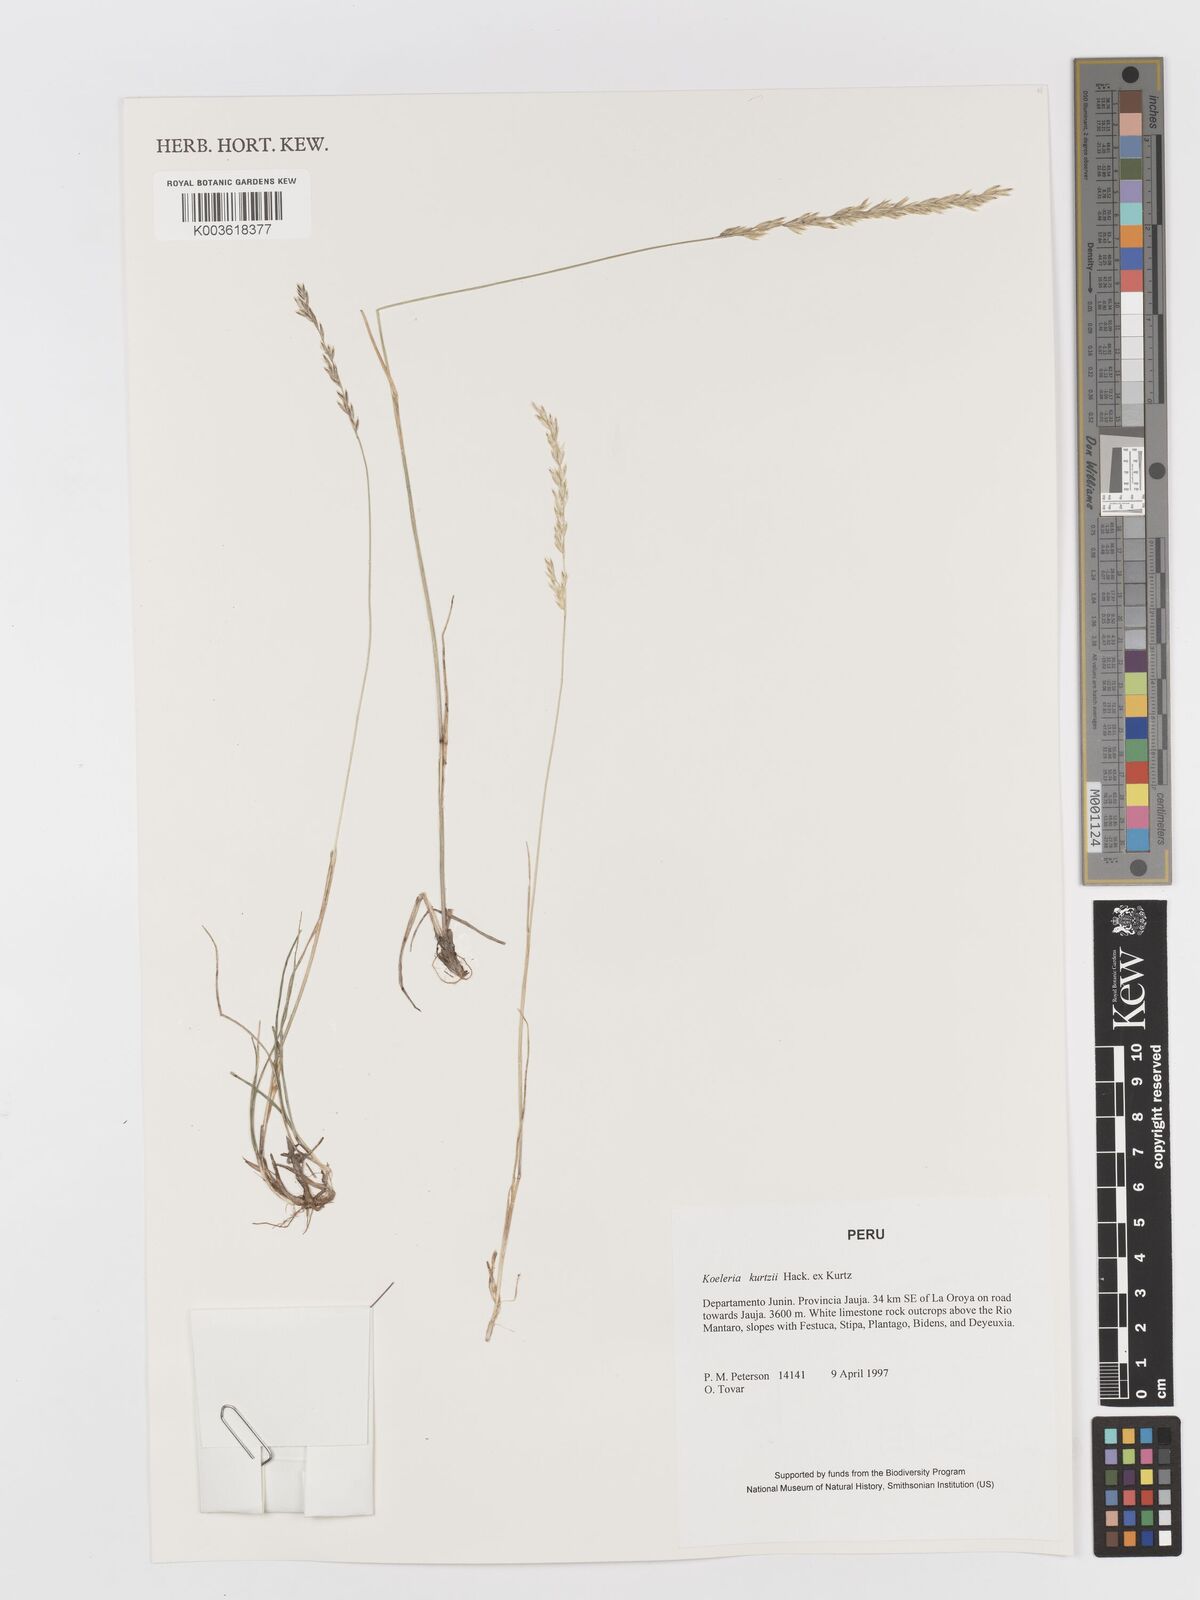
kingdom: Plantae
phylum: Tracheophyta
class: Liliopsida
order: Poales
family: Poaceae
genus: Koeleria
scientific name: Koeleria kurtzii
